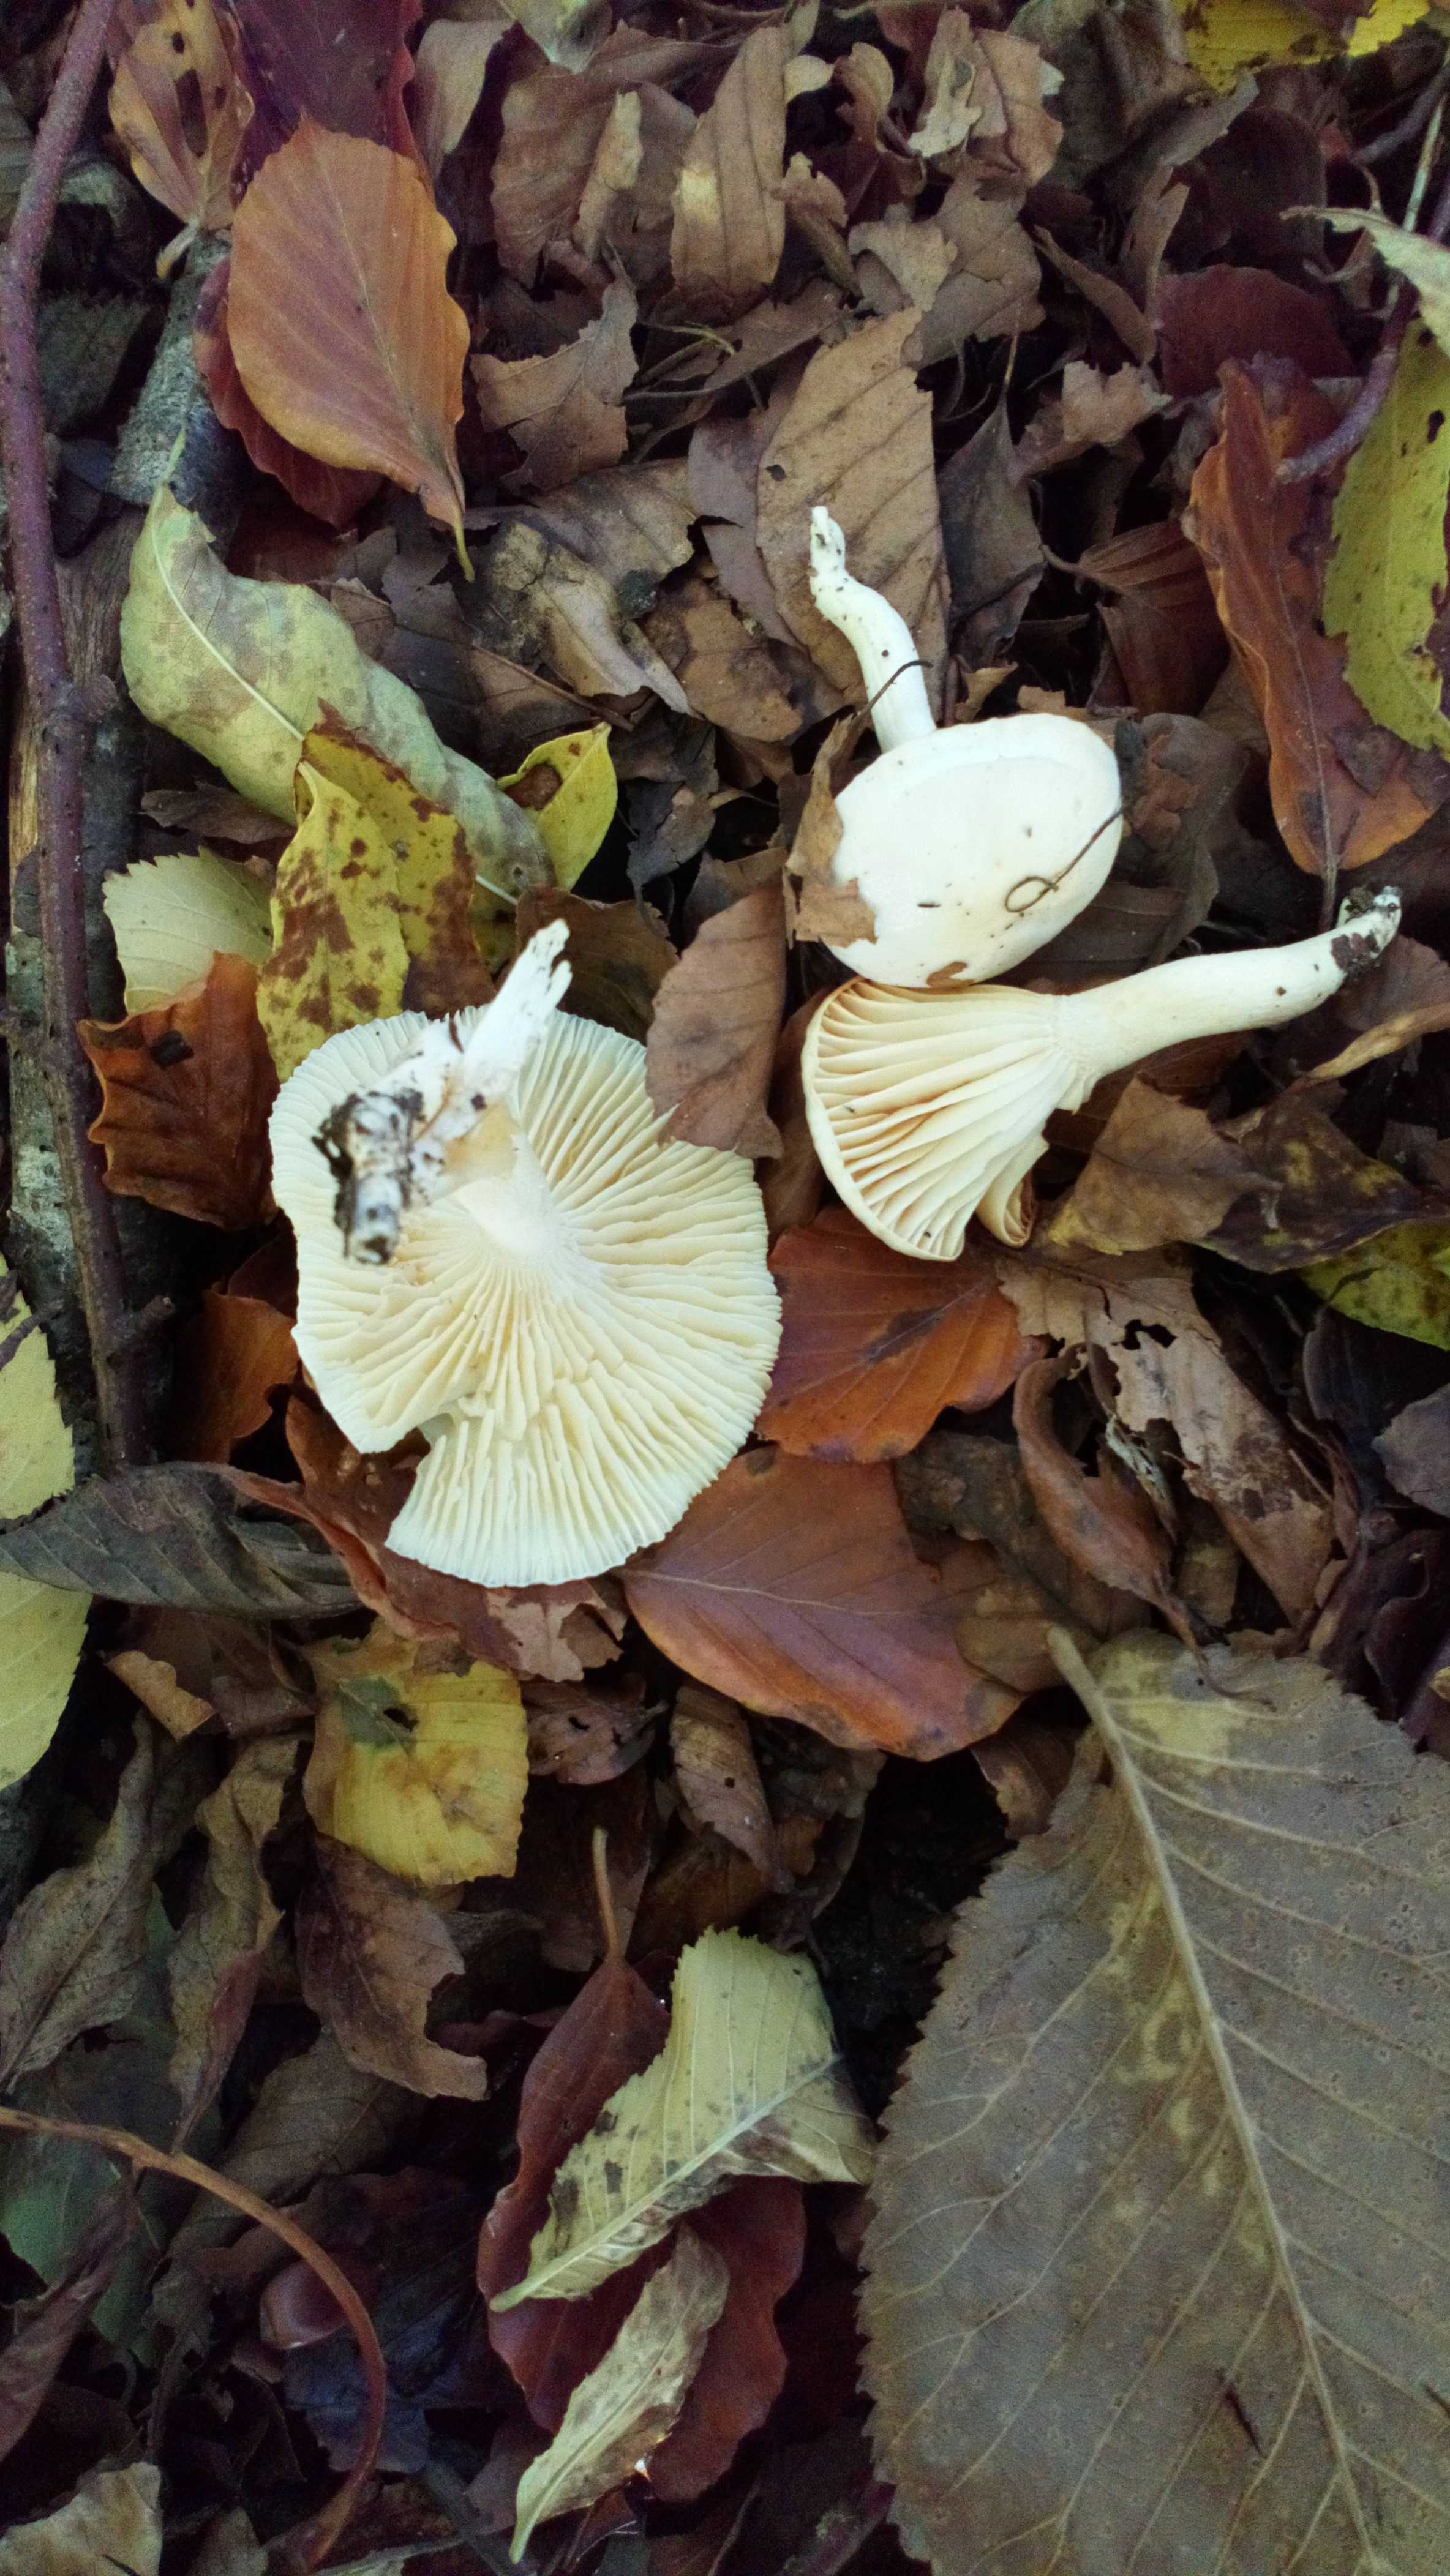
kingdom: Fungi
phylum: Basidiomycota
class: Agaricomycetes
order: Agaricales
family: Hygrophoraceae
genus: Hygrophorus
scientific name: Hygrophorus discoxanthus
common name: ildelugtende sneglehat
